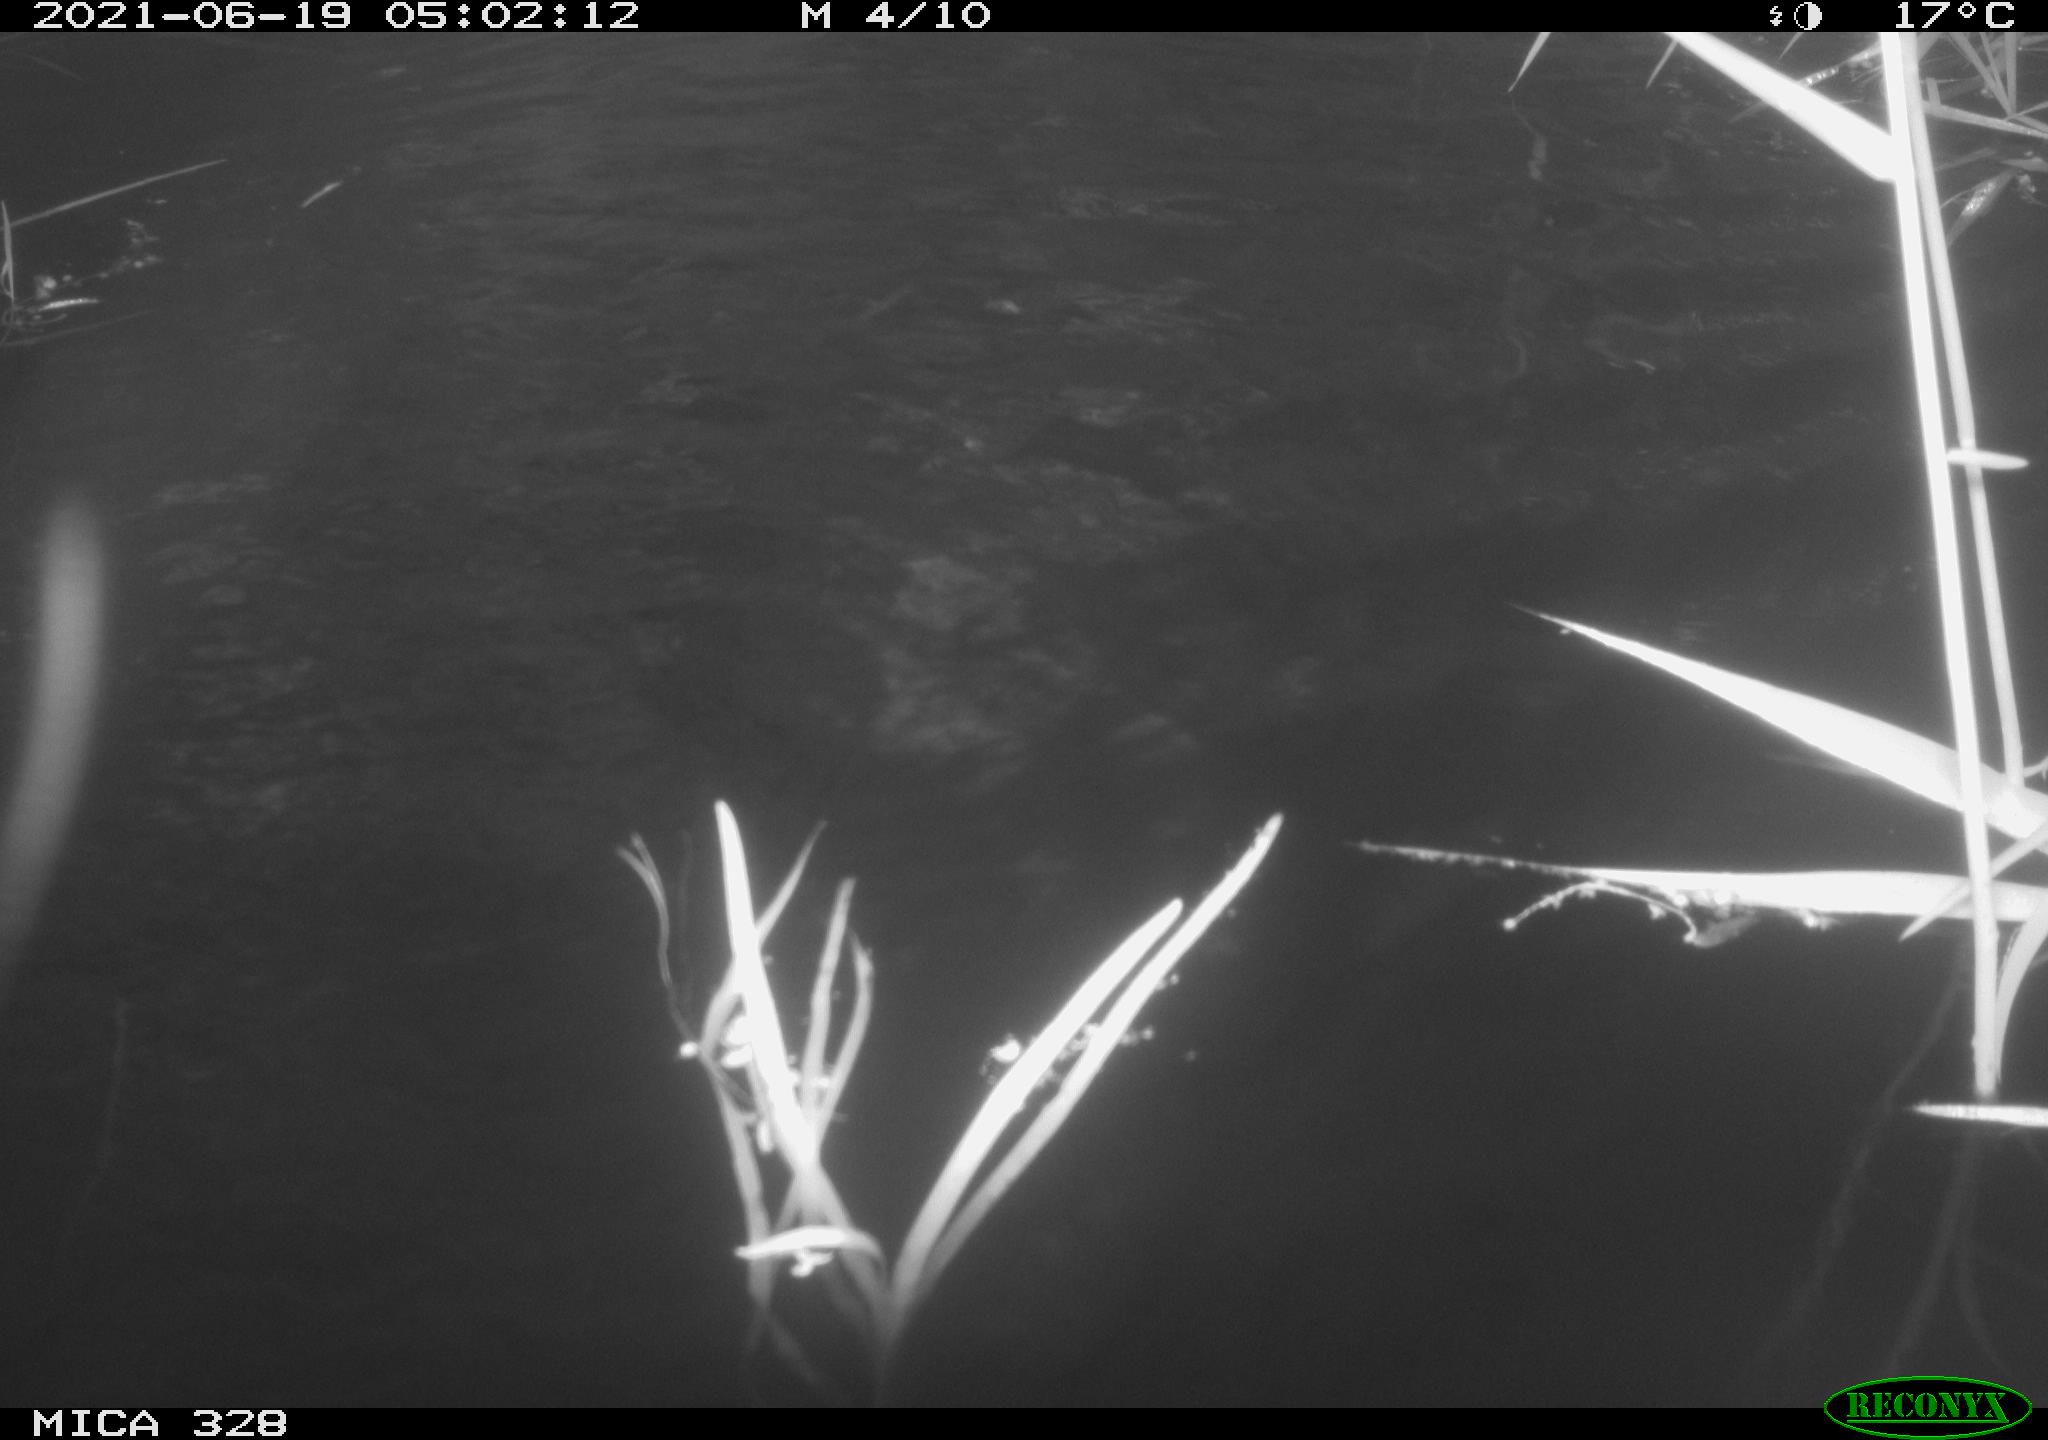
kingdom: Animalia
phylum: Chordata
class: Mammalia
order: Rodentia
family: Cricetidae
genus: Ondatra
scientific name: Ondatra zibethicus
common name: Muskrat
